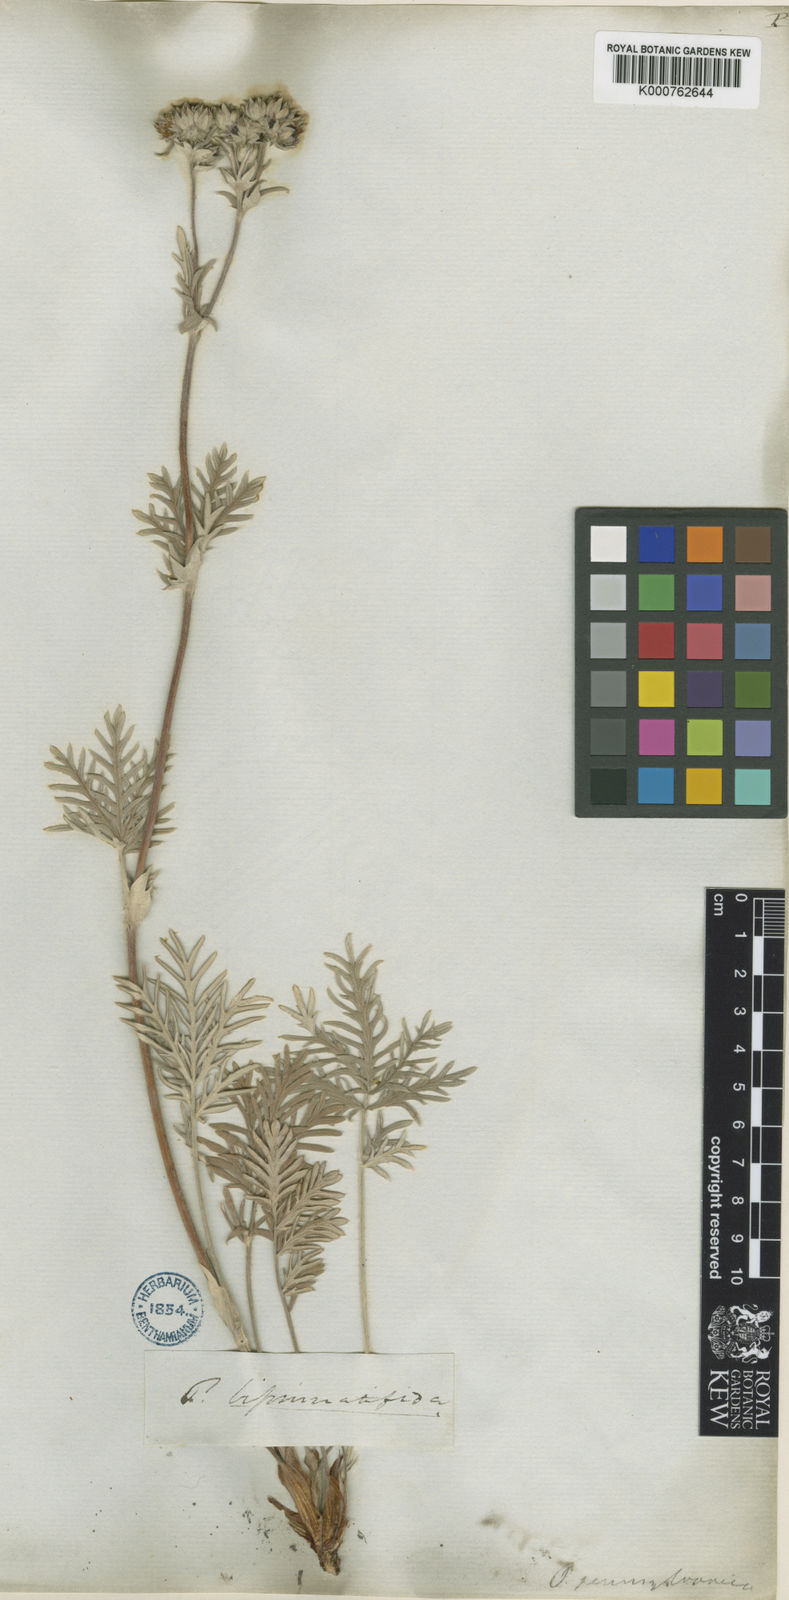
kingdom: Plantae
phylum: Tracheophyta
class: Magnoliopsida
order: Rosales
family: Rosaceae
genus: Potentilla
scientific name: Potentilla
